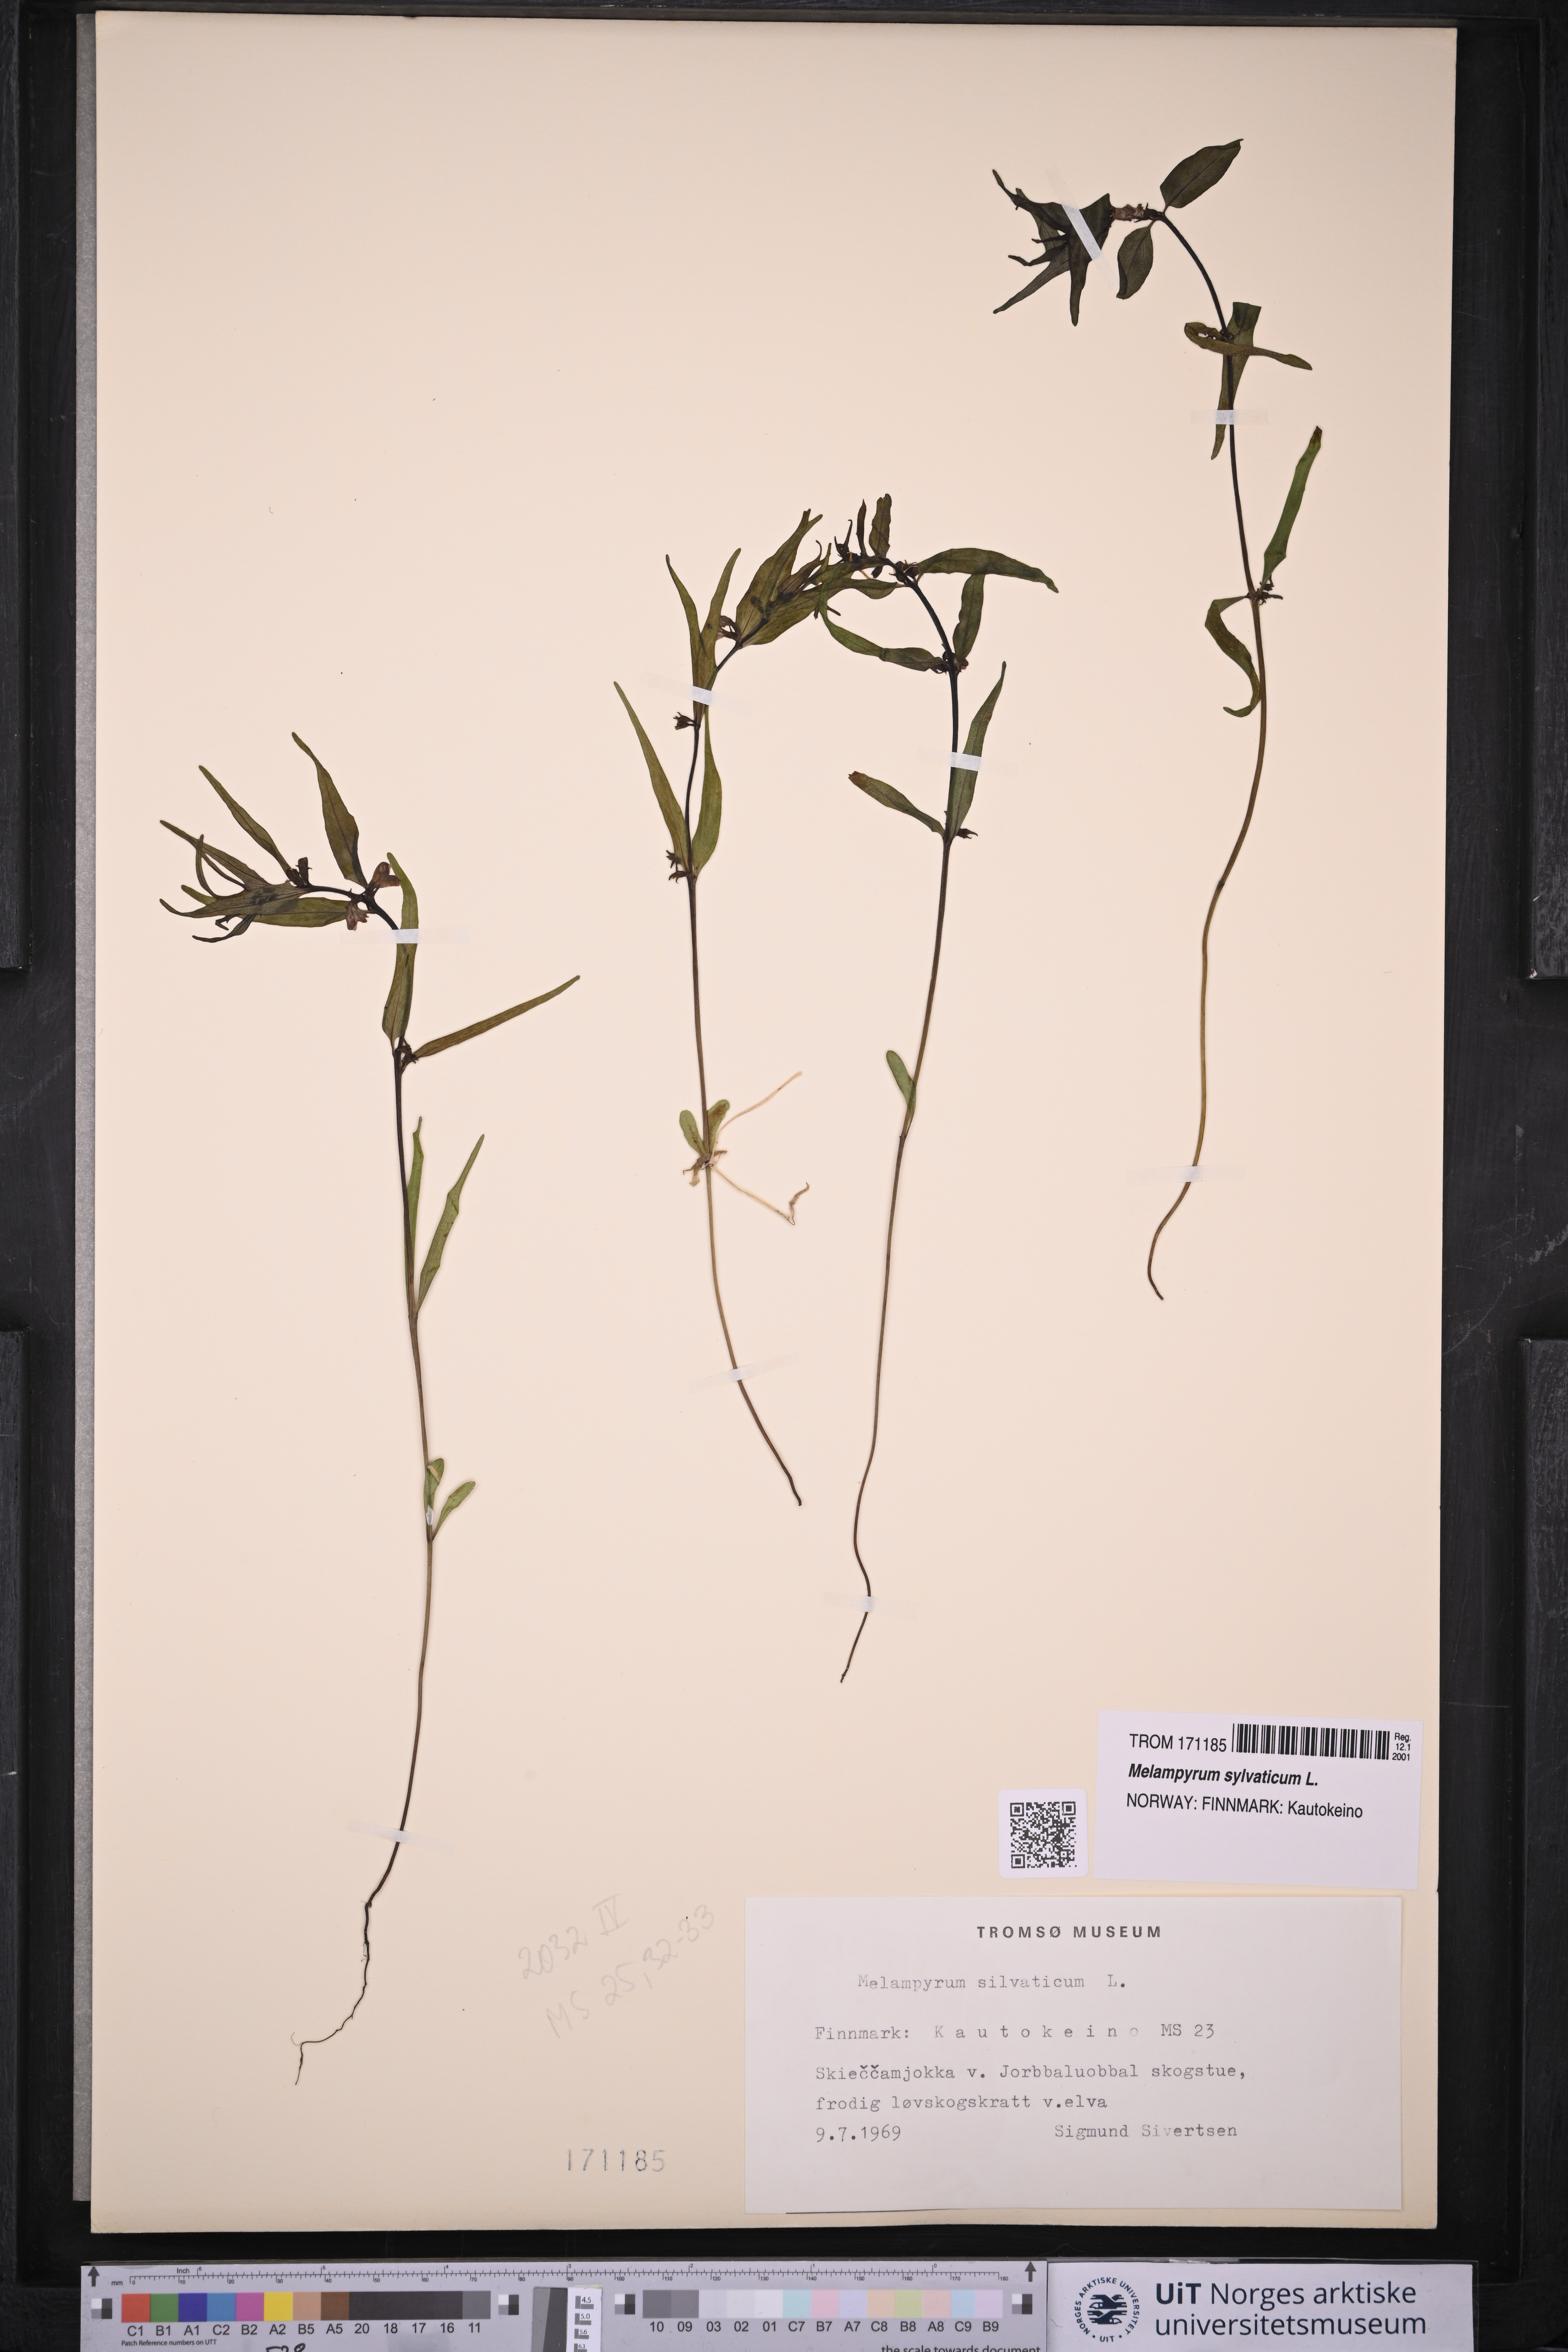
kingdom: Plantae
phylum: Tracheophyta
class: Magnoliopsida
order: Lamiales
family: Orobanchaceae
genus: Melampyrum
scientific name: Melampyrum sylvaticum
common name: Small cow-wheat
